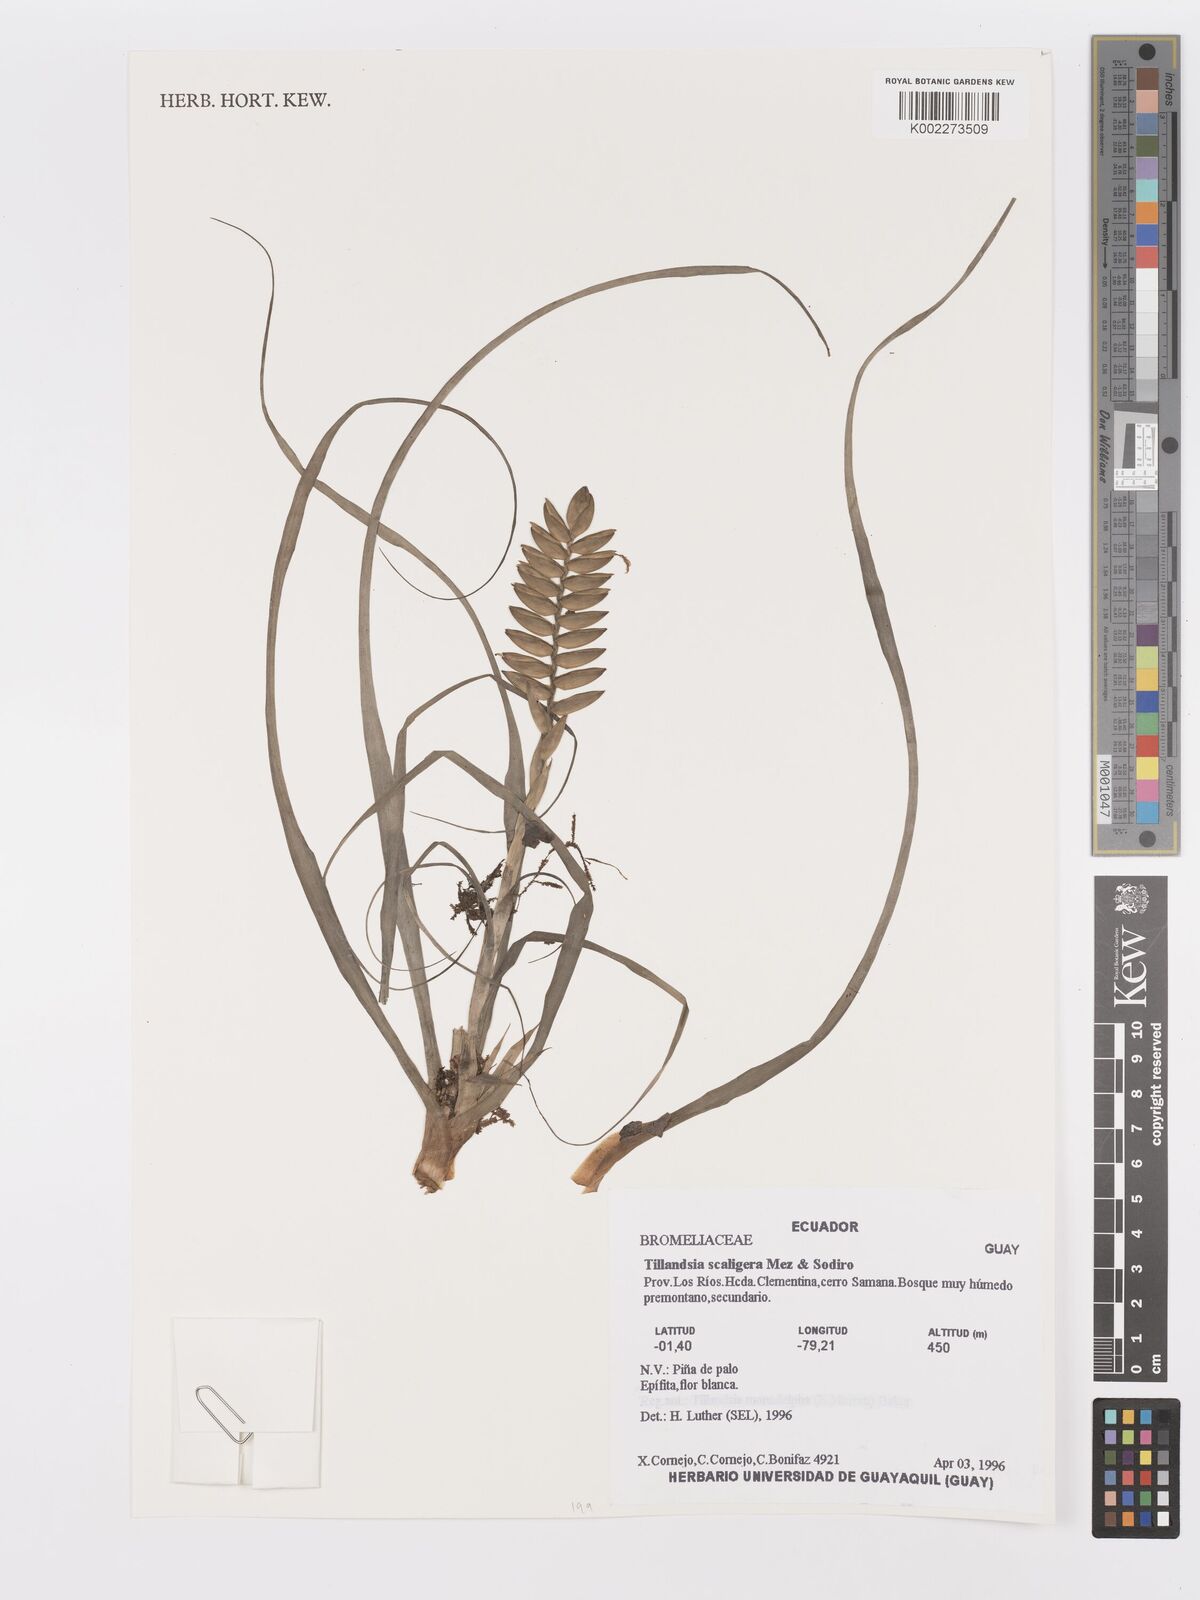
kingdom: Plantae
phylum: Tracheophyta
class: Liliopsida
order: Poales
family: Bromeliaceae
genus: Lemeltonia
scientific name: Lemeltonia scaligera
